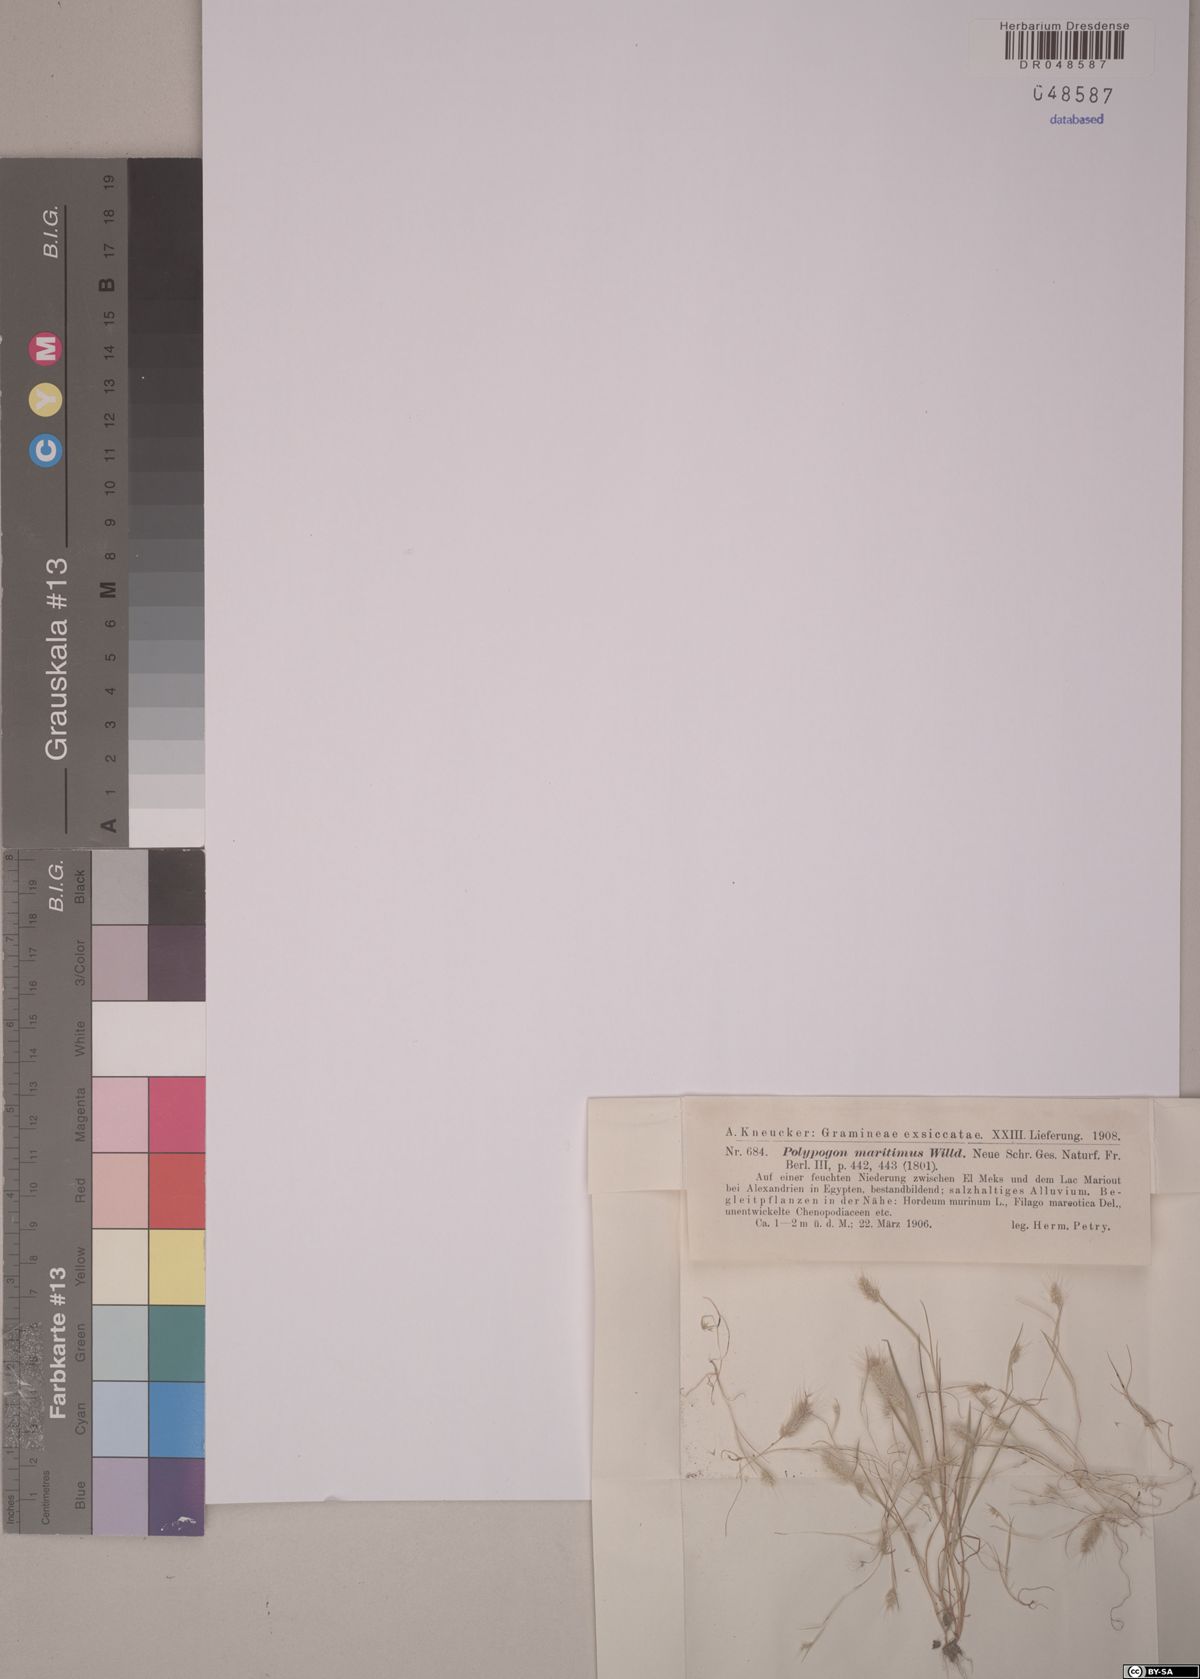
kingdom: Plantae
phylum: Tracheophyta
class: Liliopsida
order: Poales
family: Poaceae
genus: Polypogon
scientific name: Polypogon maritimus
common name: Mediterranean rabbitsfoot grass
